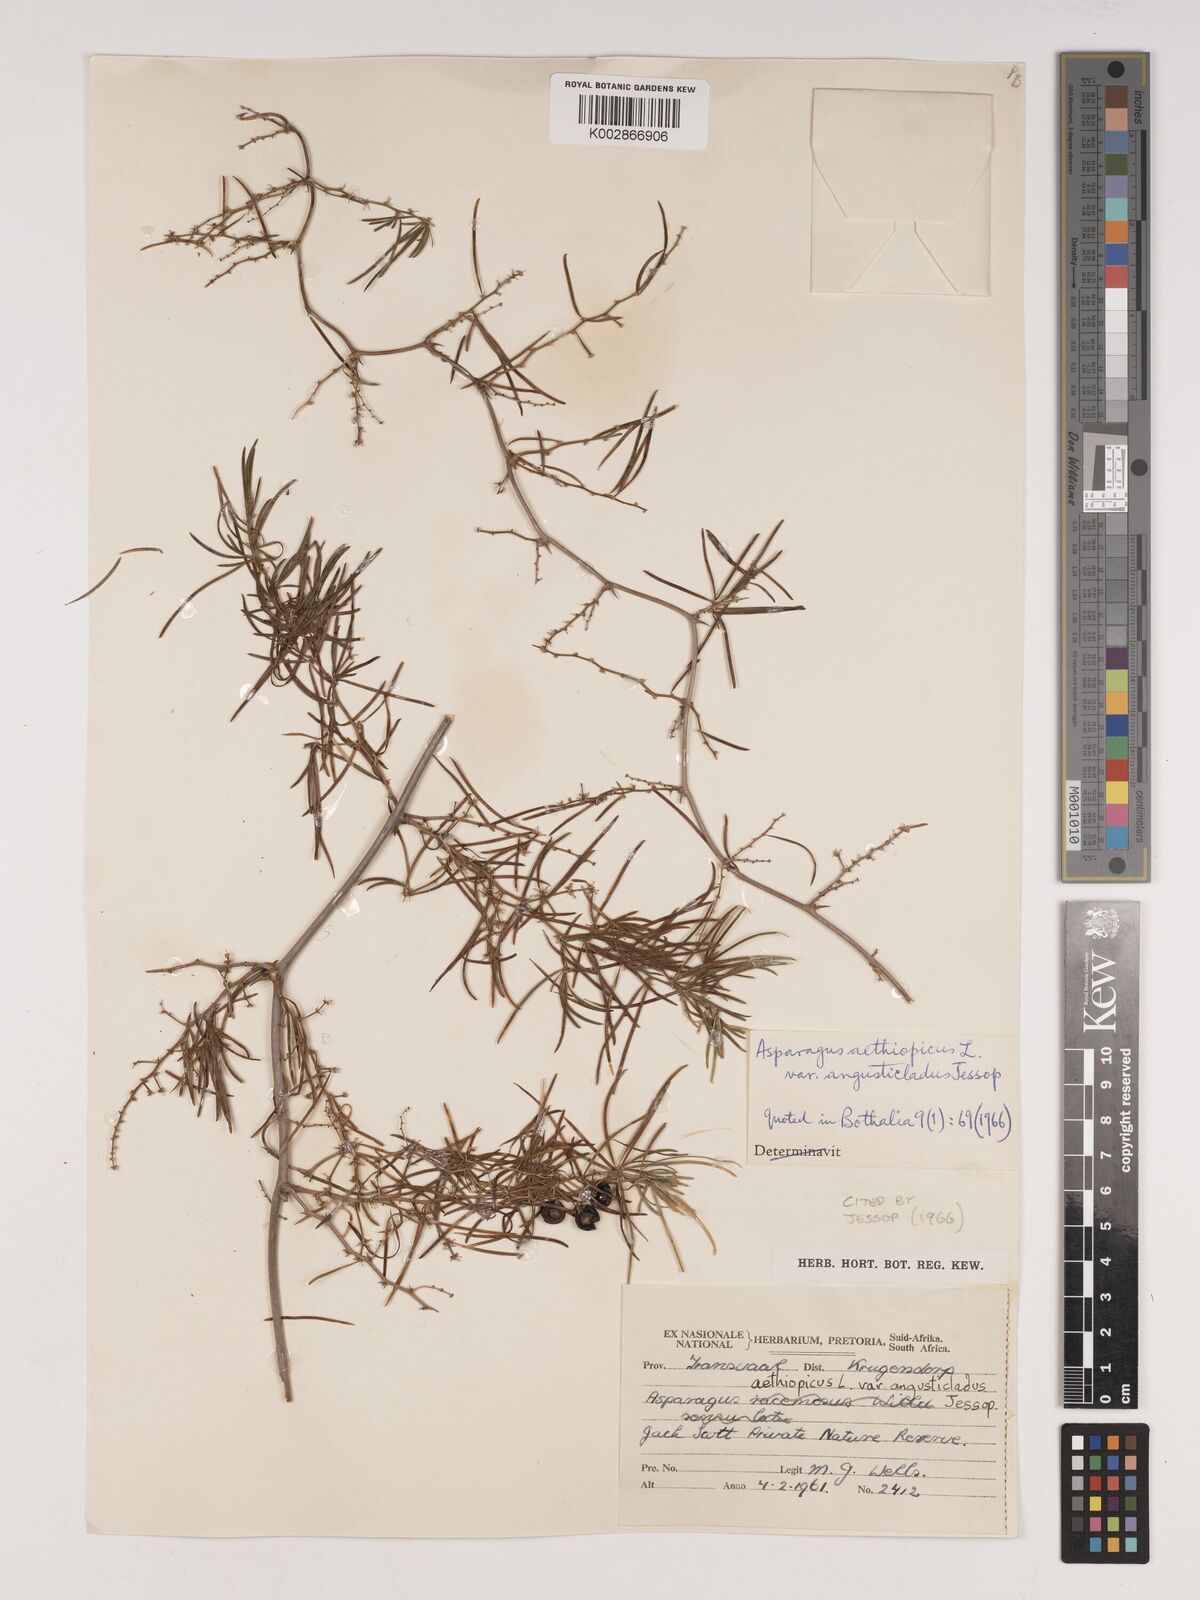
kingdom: Plantae
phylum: Tracheophyta
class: Liliopsida
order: Asparagales
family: Asparagaceae
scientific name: Asparagaceae
